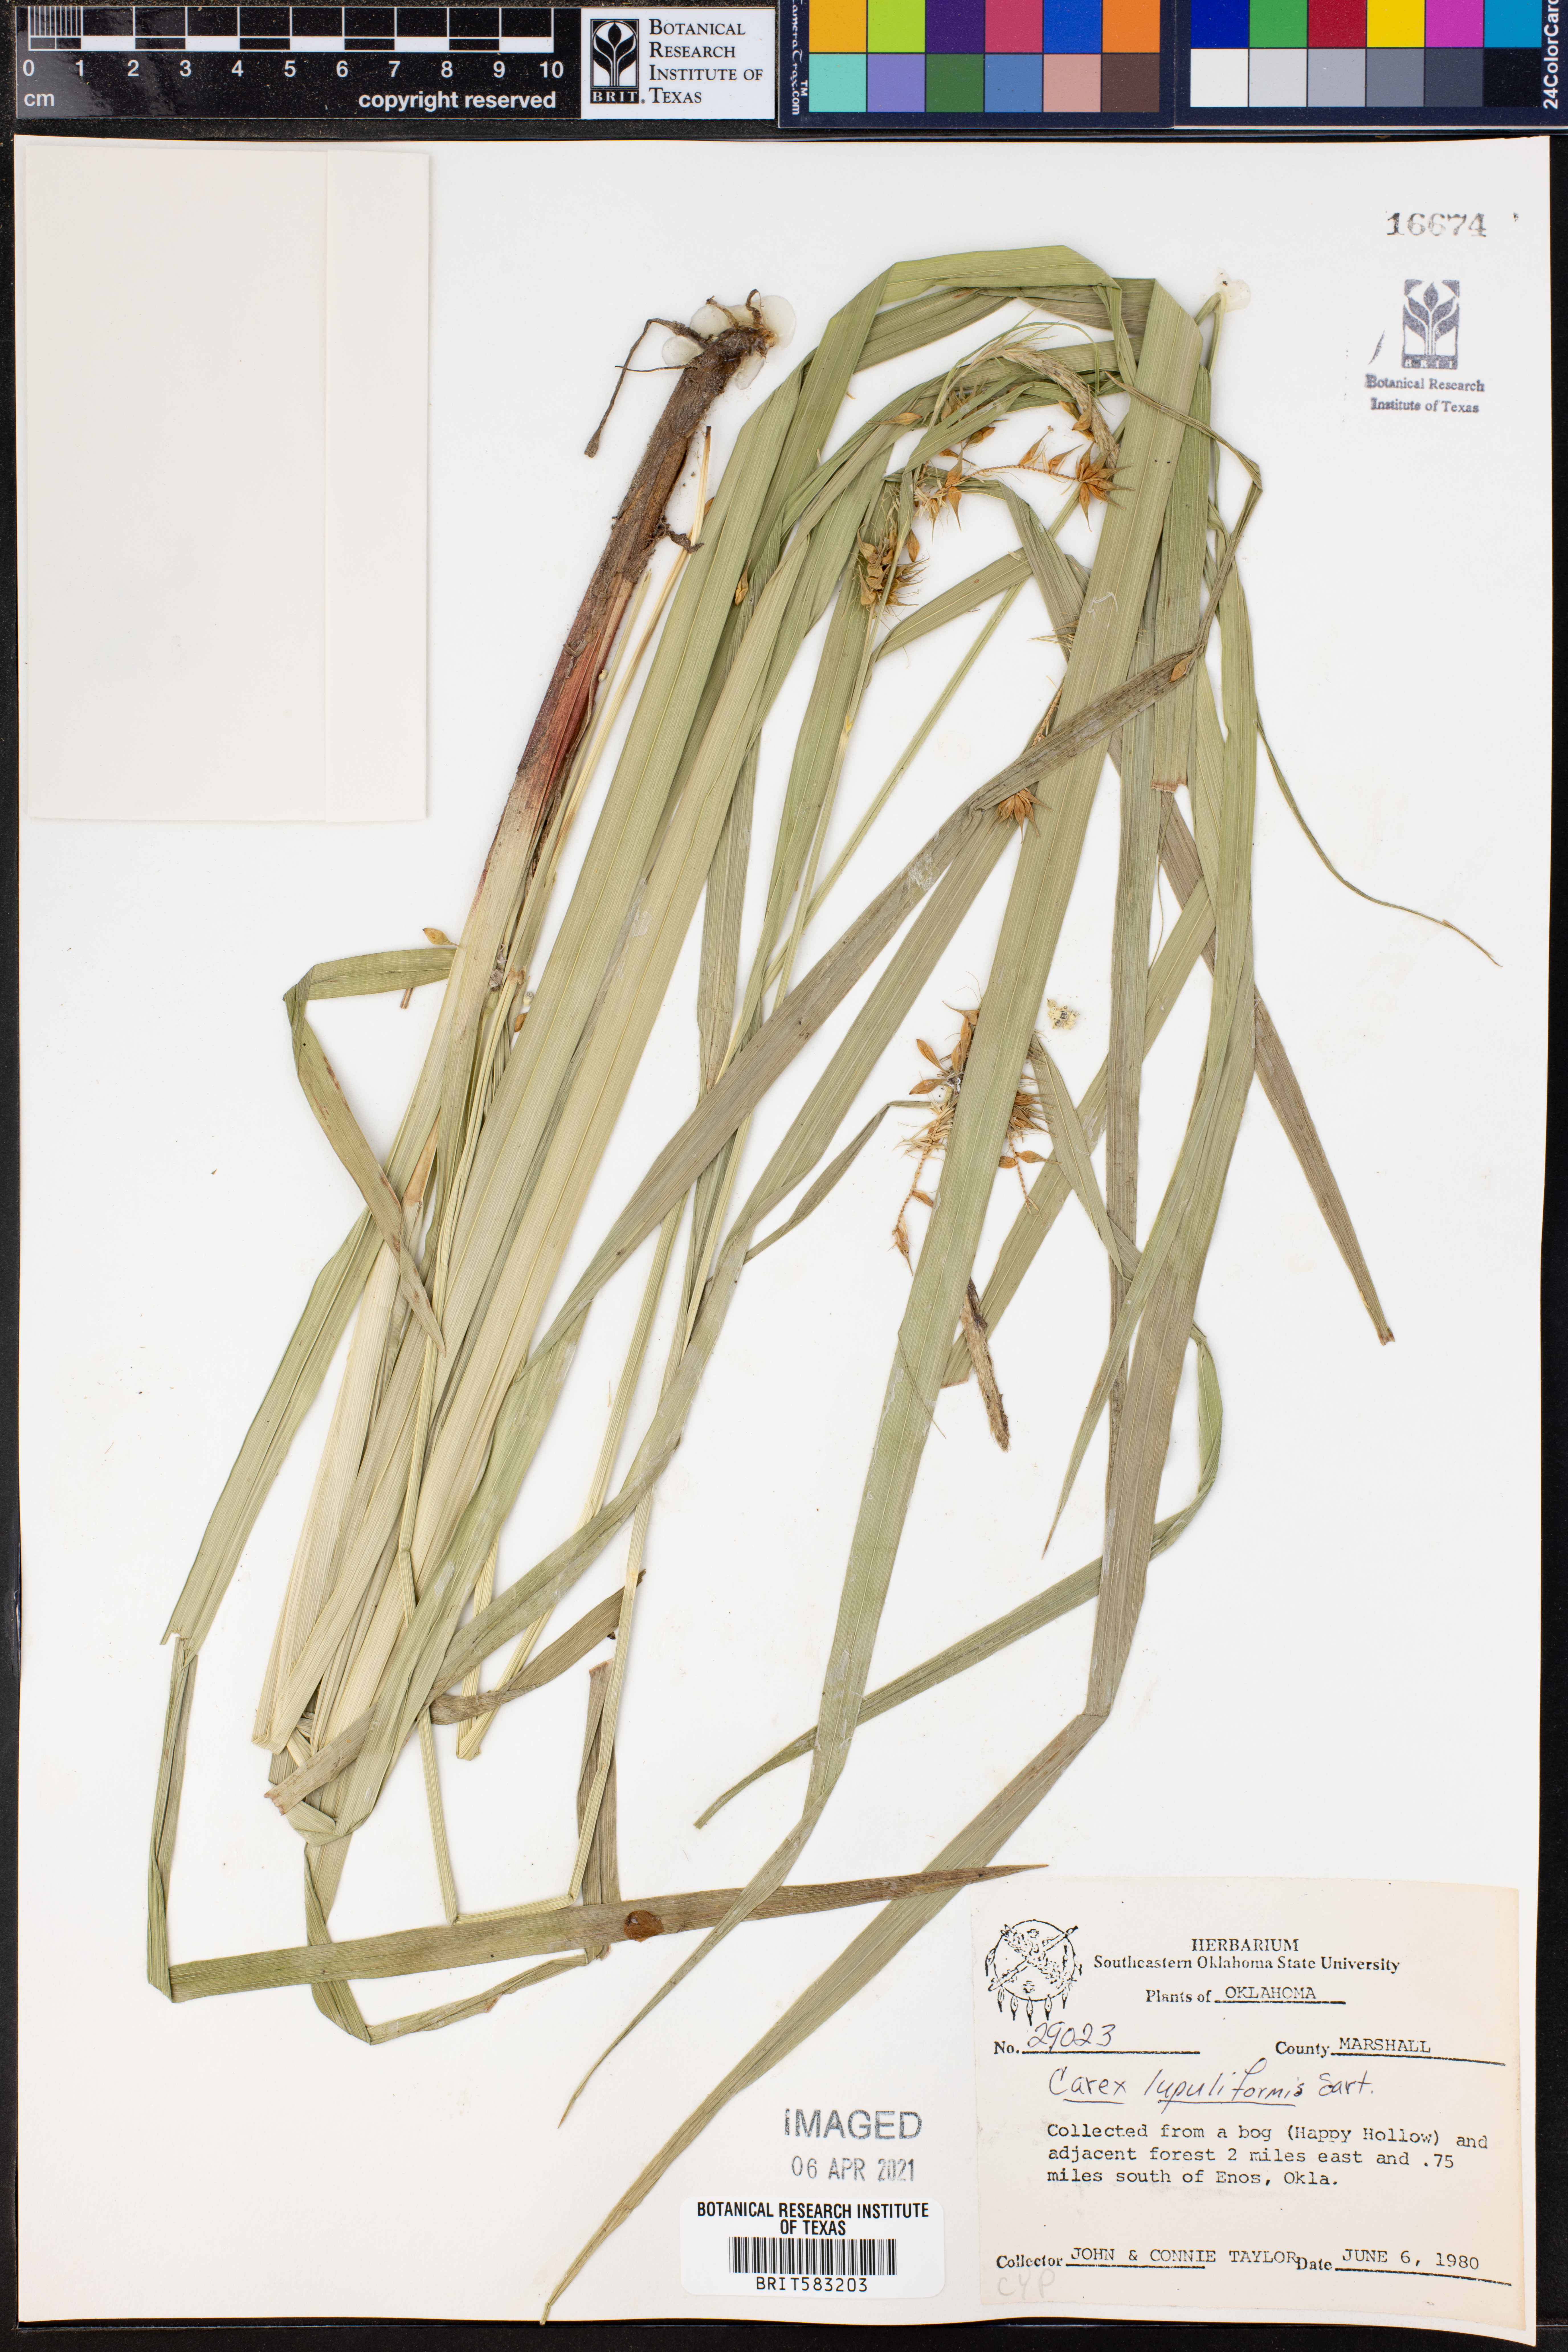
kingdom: Plantae
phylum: Tracheophyta
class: Liliopsida
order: Poales
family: Cyperaceae
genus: Carex
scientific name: Carex lupuliformis
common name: False hop sedge
